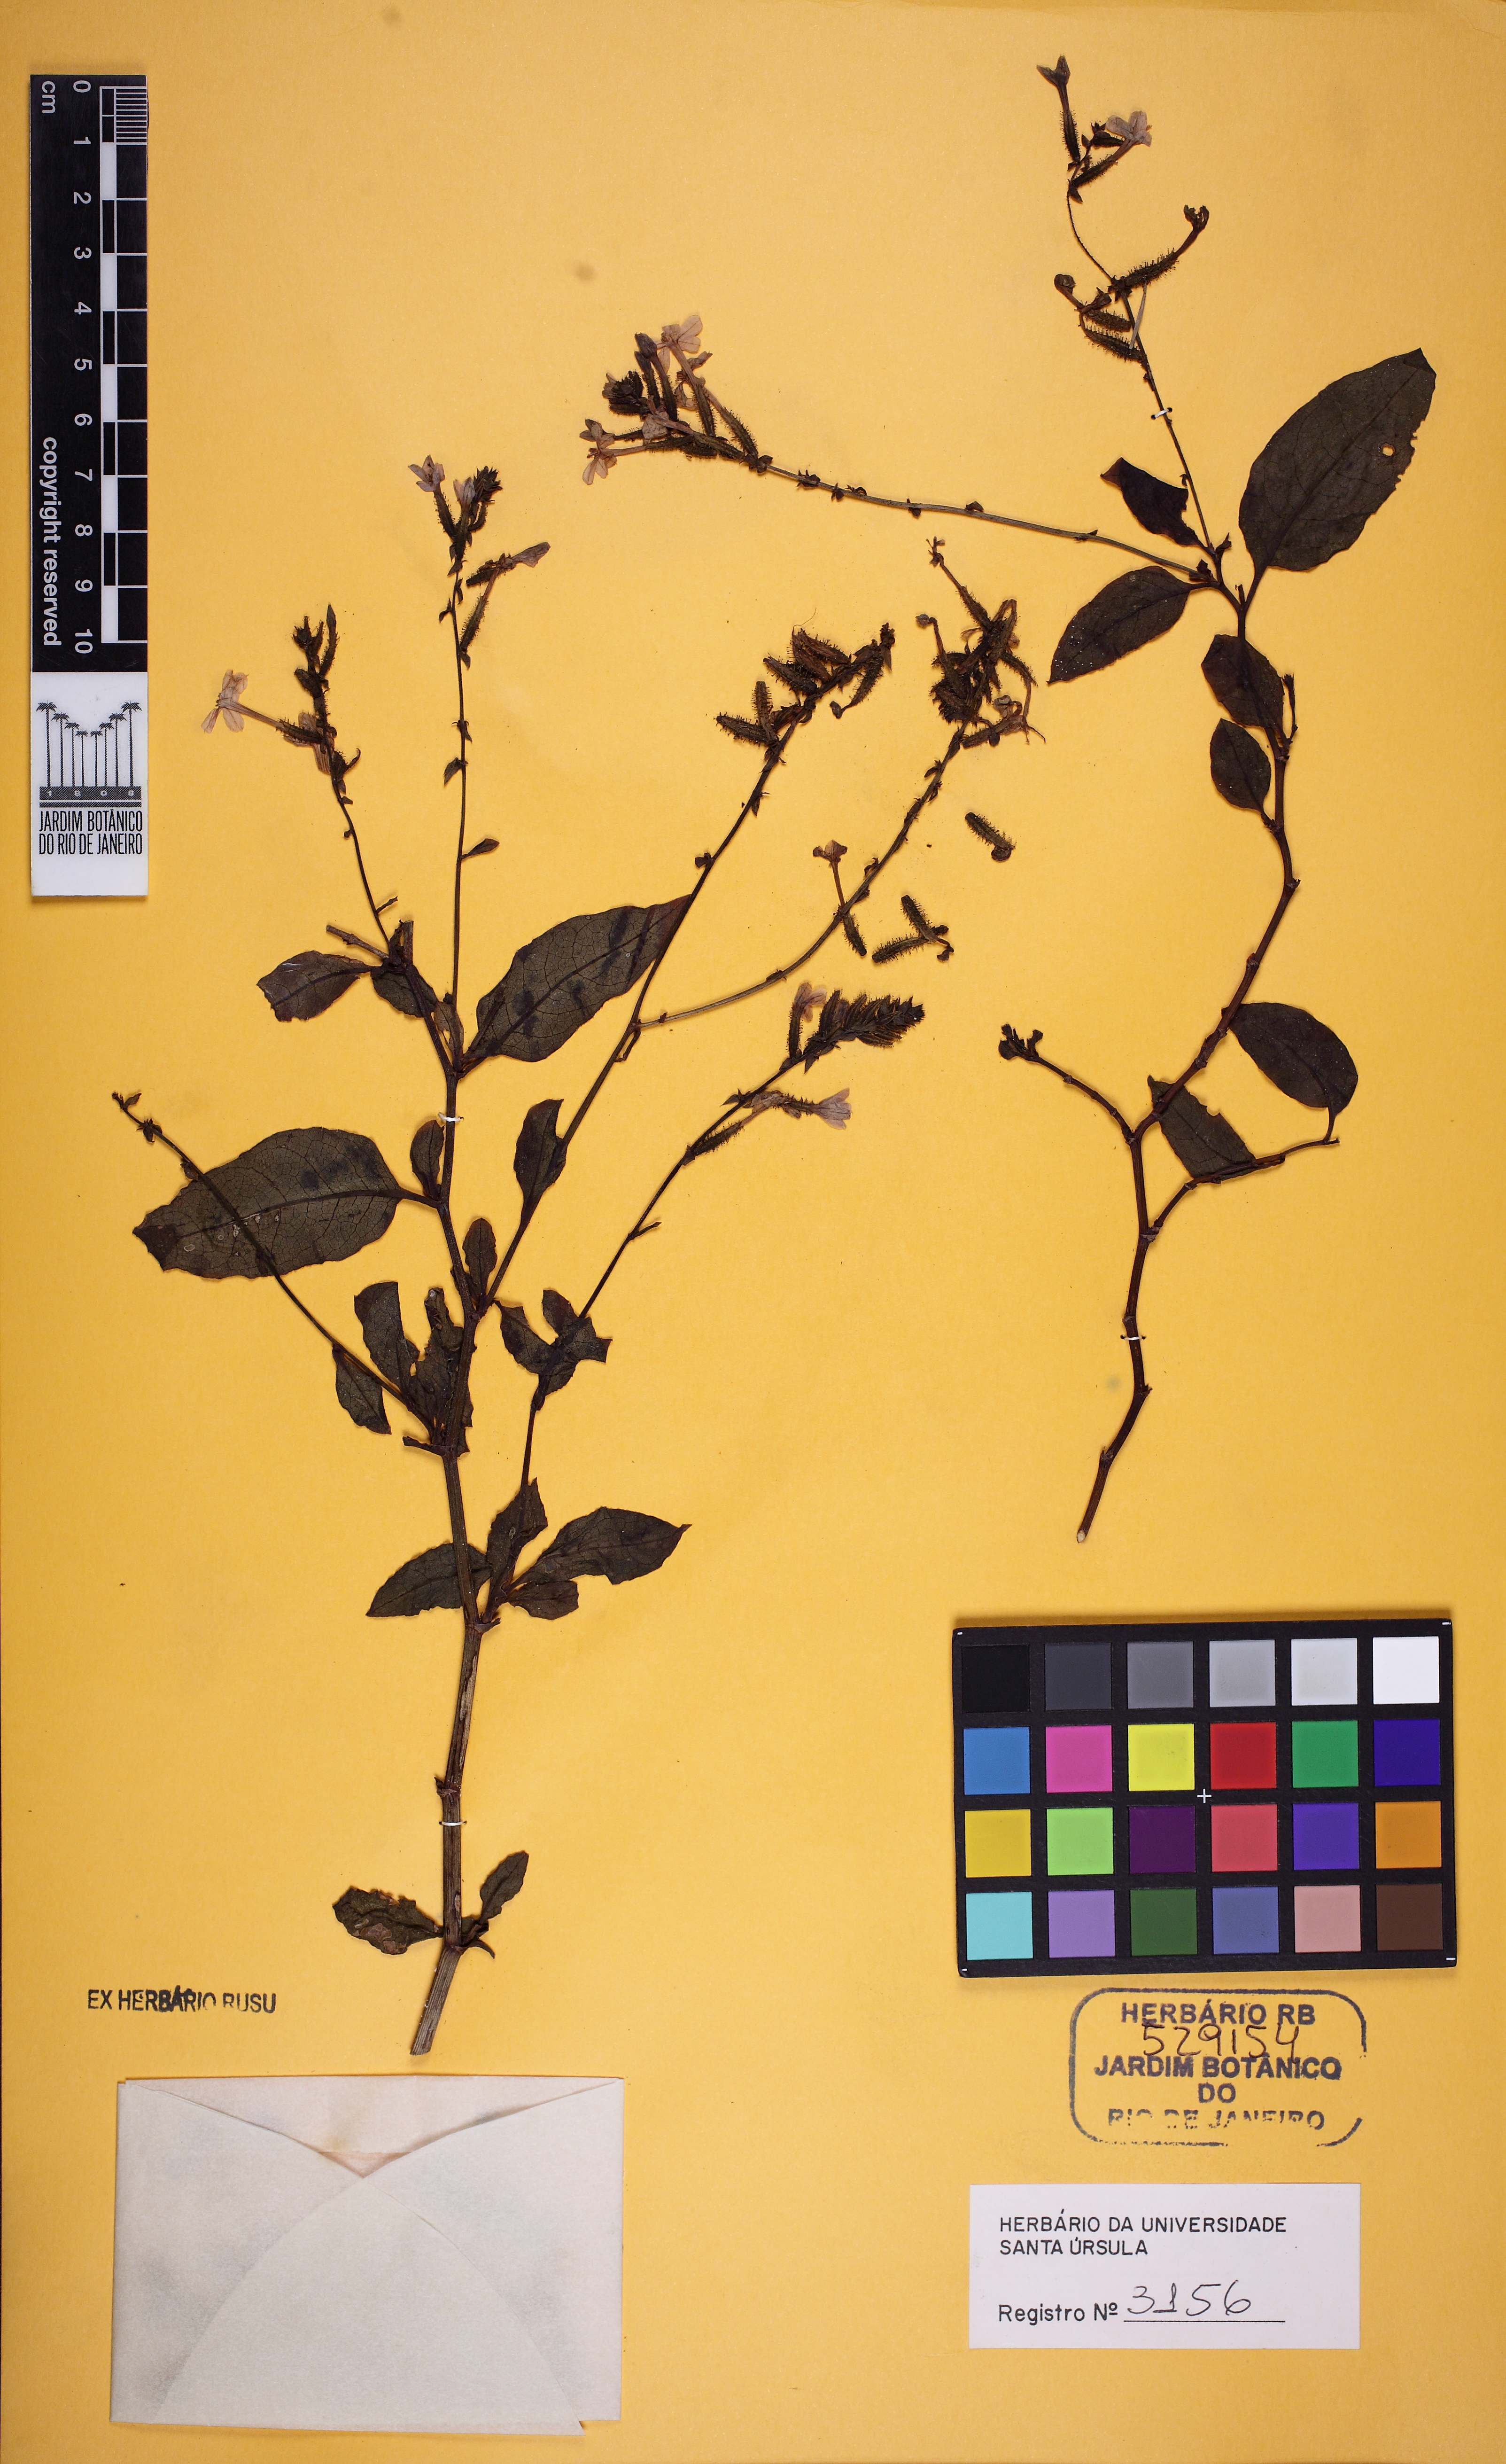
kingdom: Plantae
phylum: Tracheophyta
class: Magnoliopsida
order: Caryophyllales
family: Plumbaginaceae
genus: Plumbago
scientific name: Plumbago
